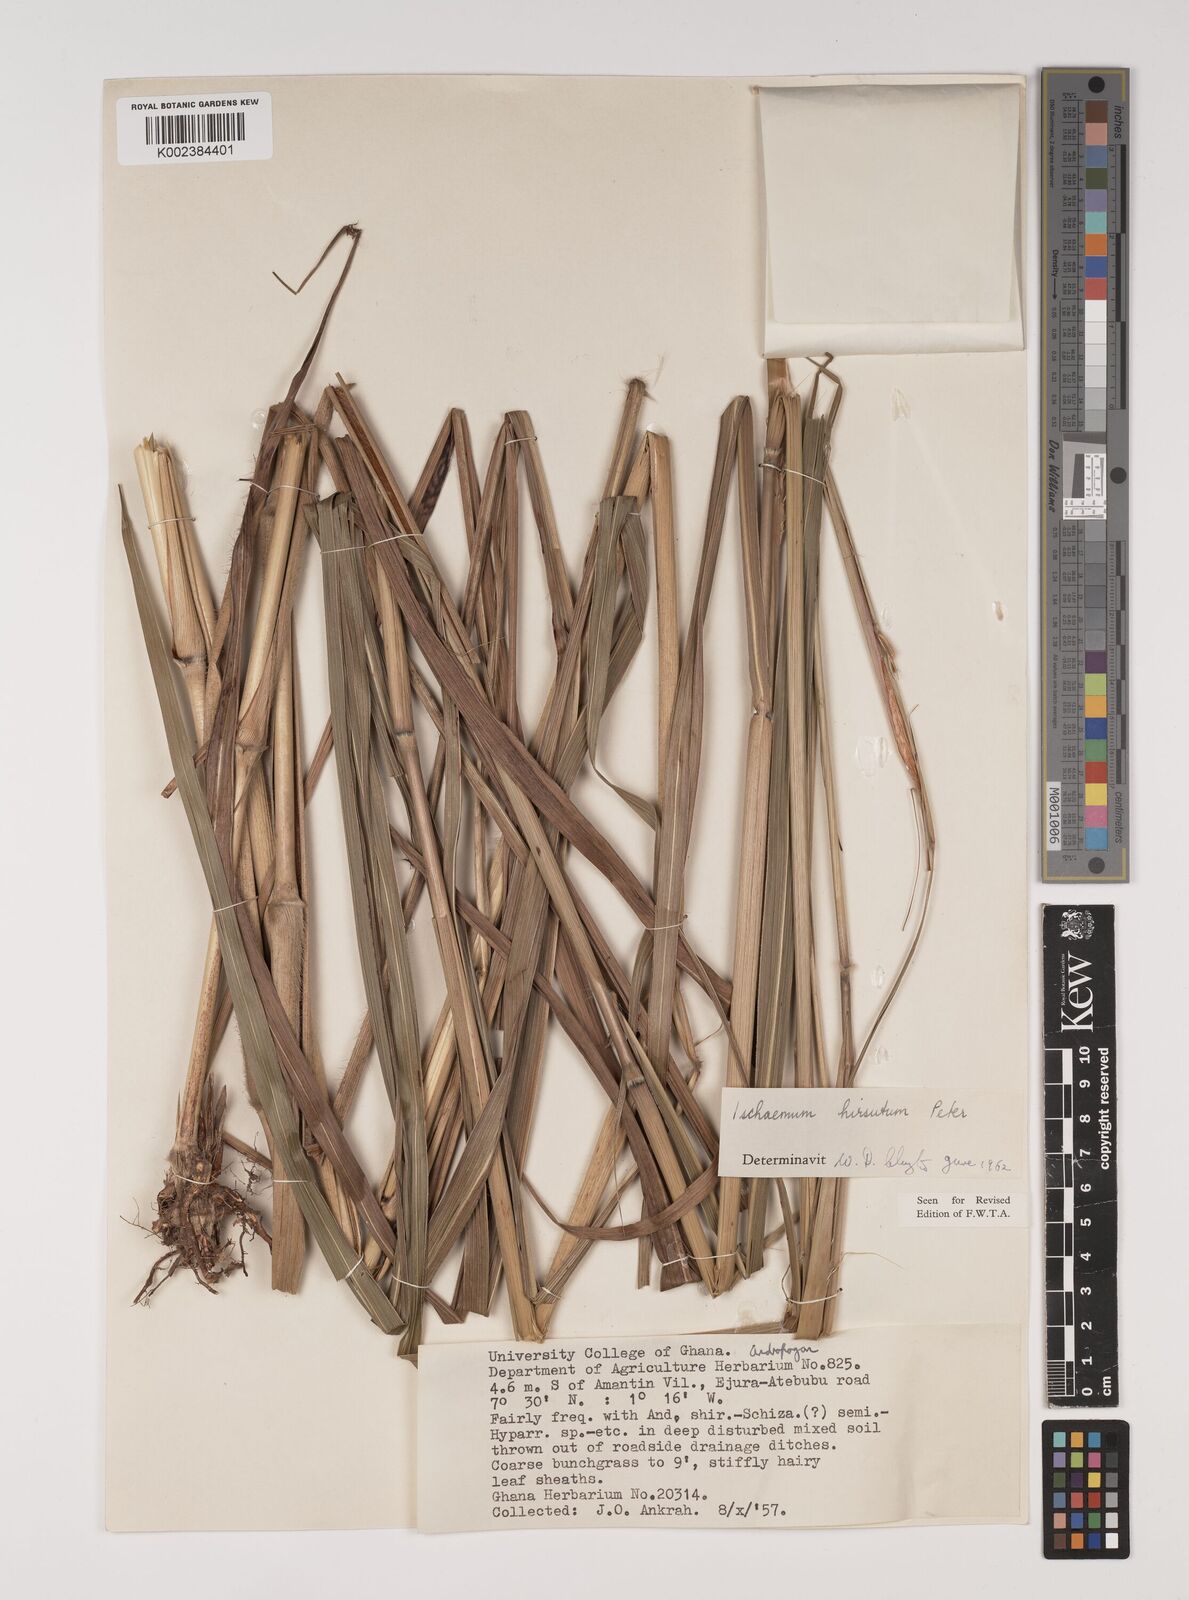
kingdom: Plantae
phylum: Tracheophyta
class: Liliopsida
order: Poales
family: Poaceae
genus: Rottboellia
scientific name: Rottboellia villosa
